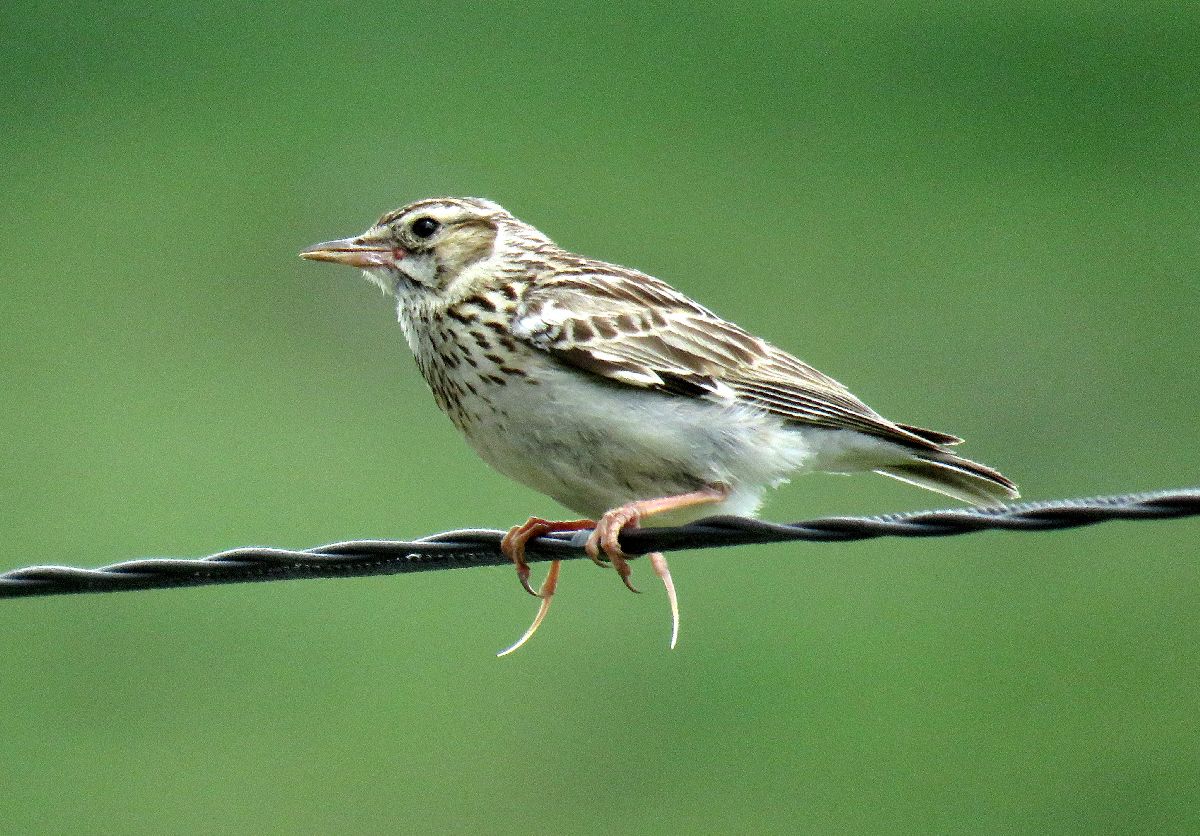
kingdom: Animalia
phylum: Chordata
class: Aves
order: Passeriformes
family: Alaudidae
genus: Lullula
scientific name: Lullula arborea
